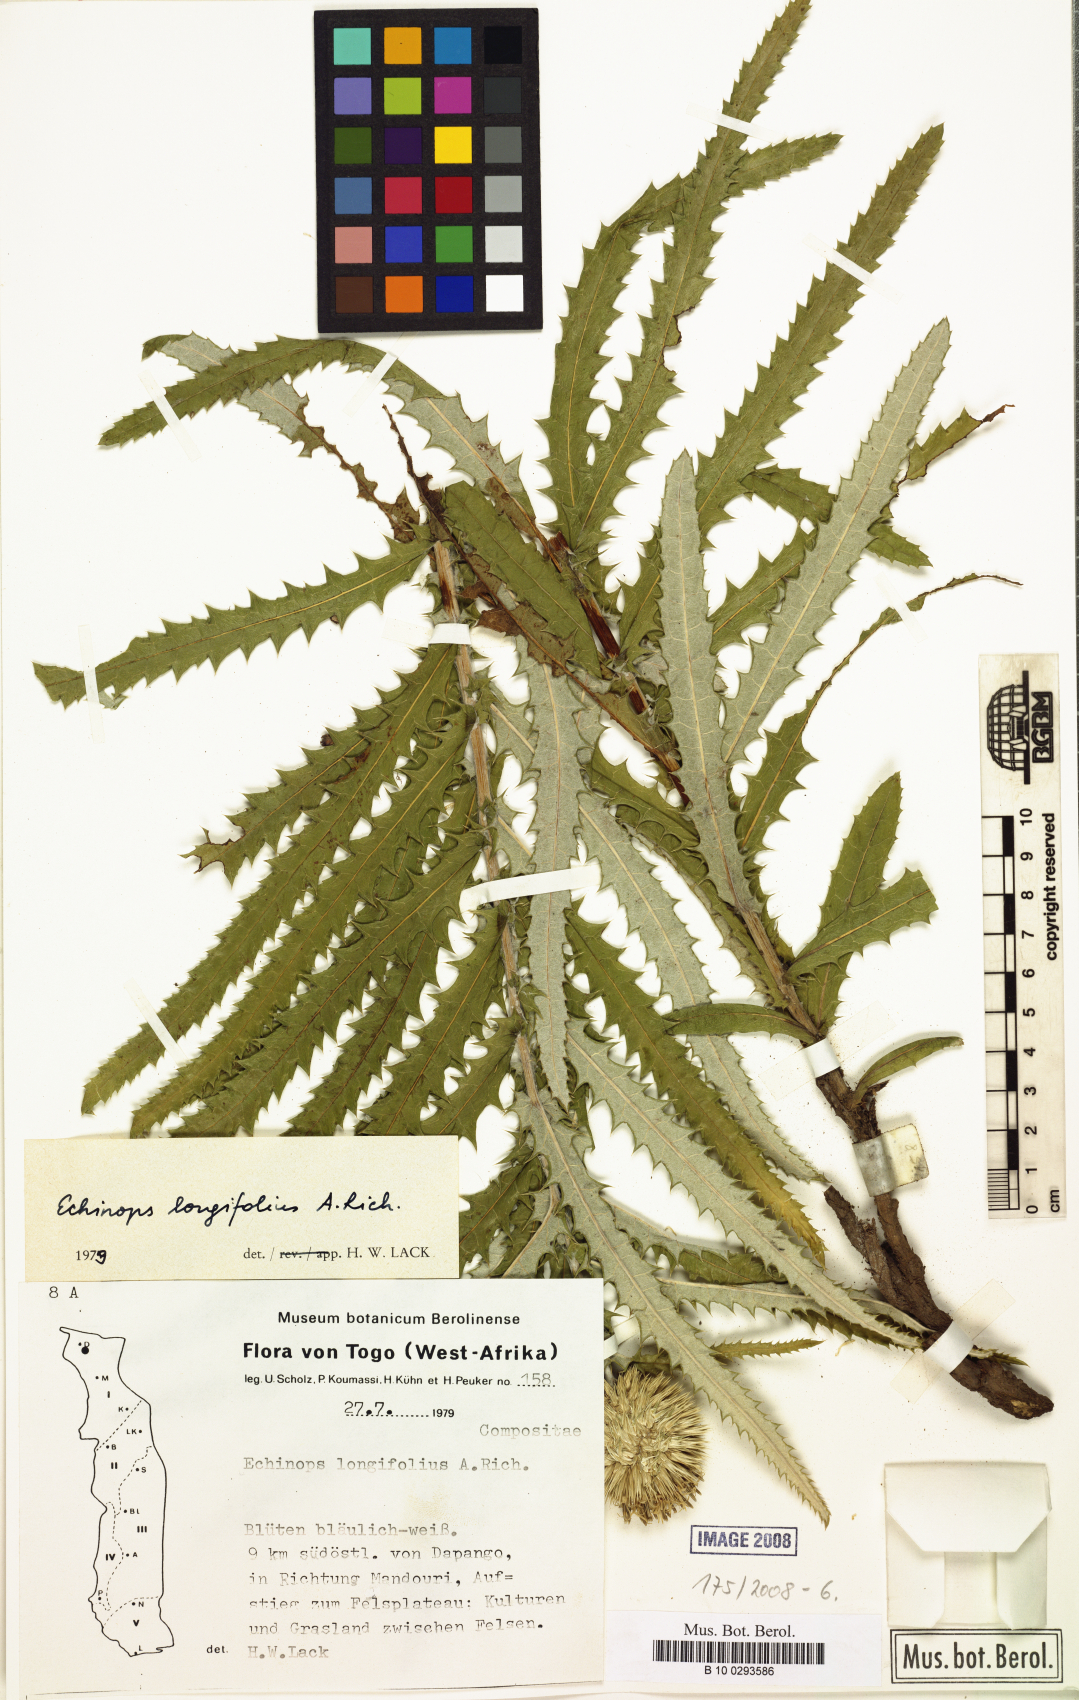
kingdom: Plantae
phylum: Tracheophyta
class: Magnoliopsida
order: Asterales
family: Asteraceae
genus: Echinops
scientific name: Echinops longifolius
